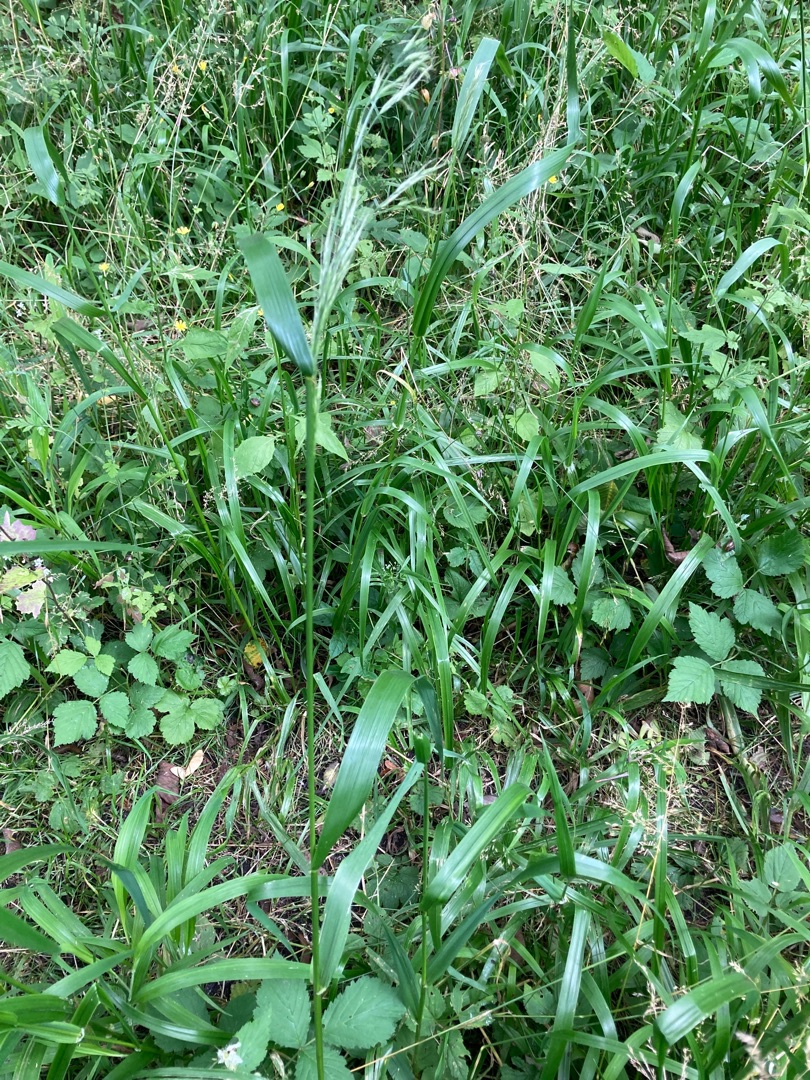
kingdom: Plantae
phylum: Tracheophyta
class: Liliopsida
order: Poales
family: Poaceae
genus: Lolium
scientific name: Lolium giganteum
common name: Kæmpe-svingel
